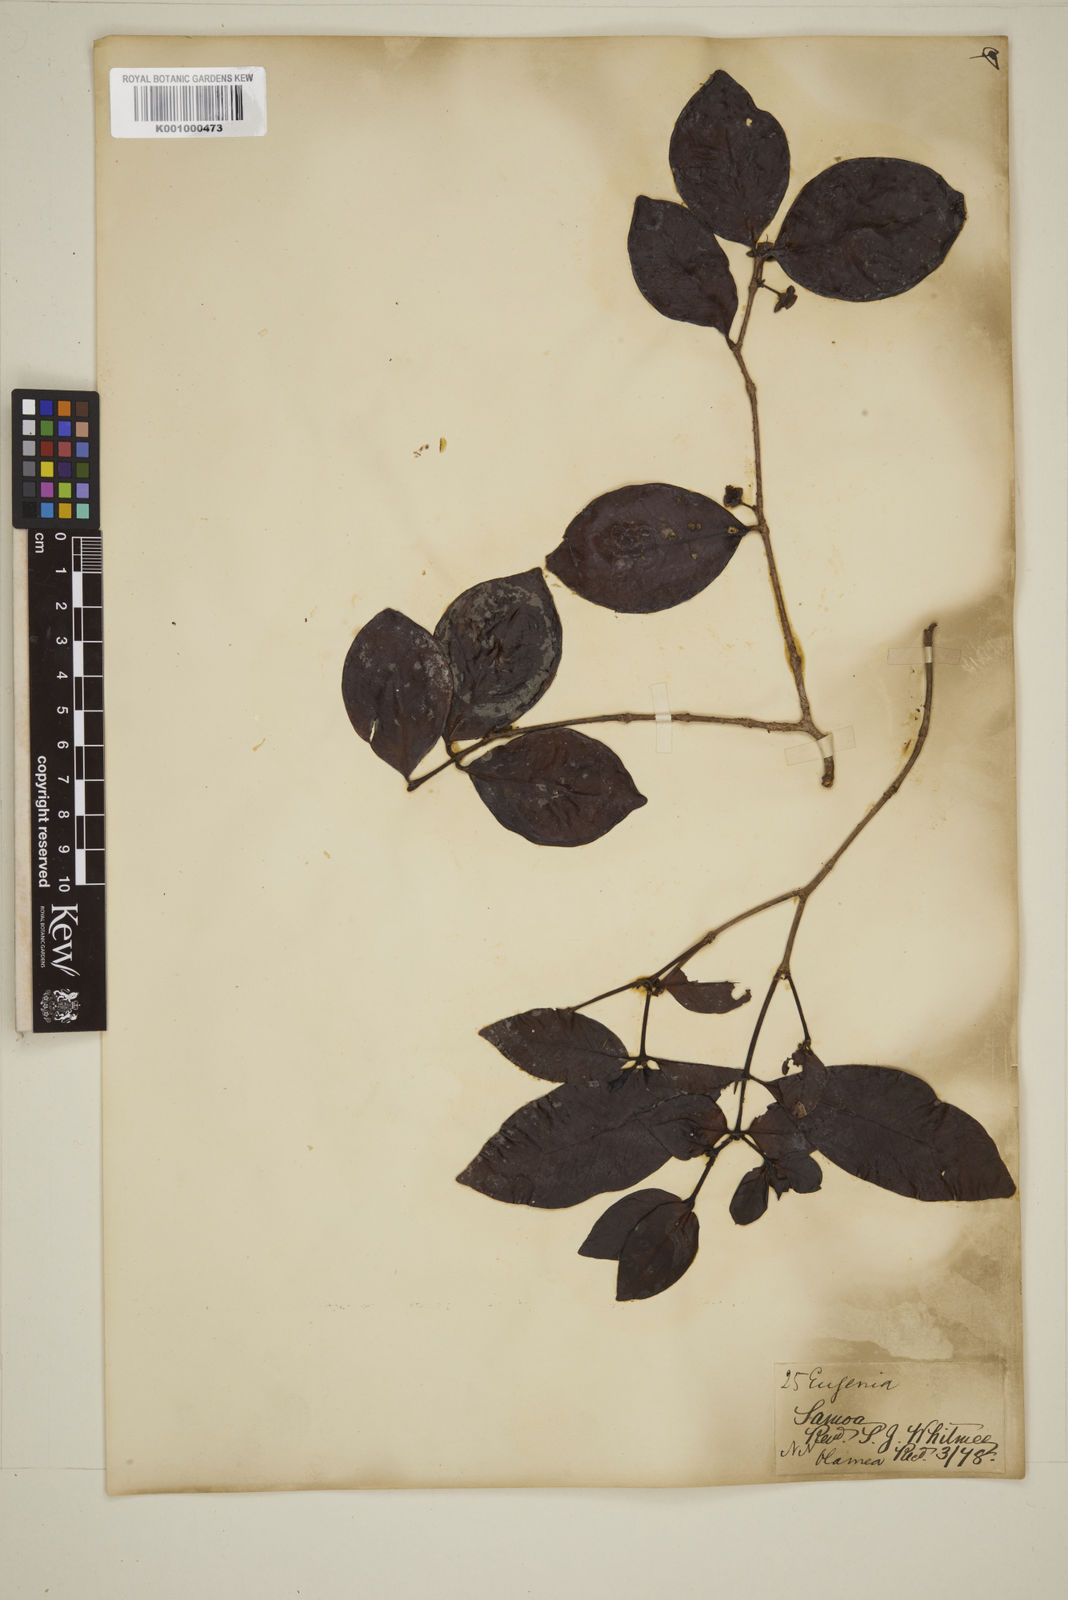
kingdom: Plantae
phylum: Tracheophyta
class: Magnoliopsida
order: Myrtales
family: Myrtaceae
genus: Eugenia
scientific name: Eugenia reinwardtiana
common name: Cedar bay-cherry
